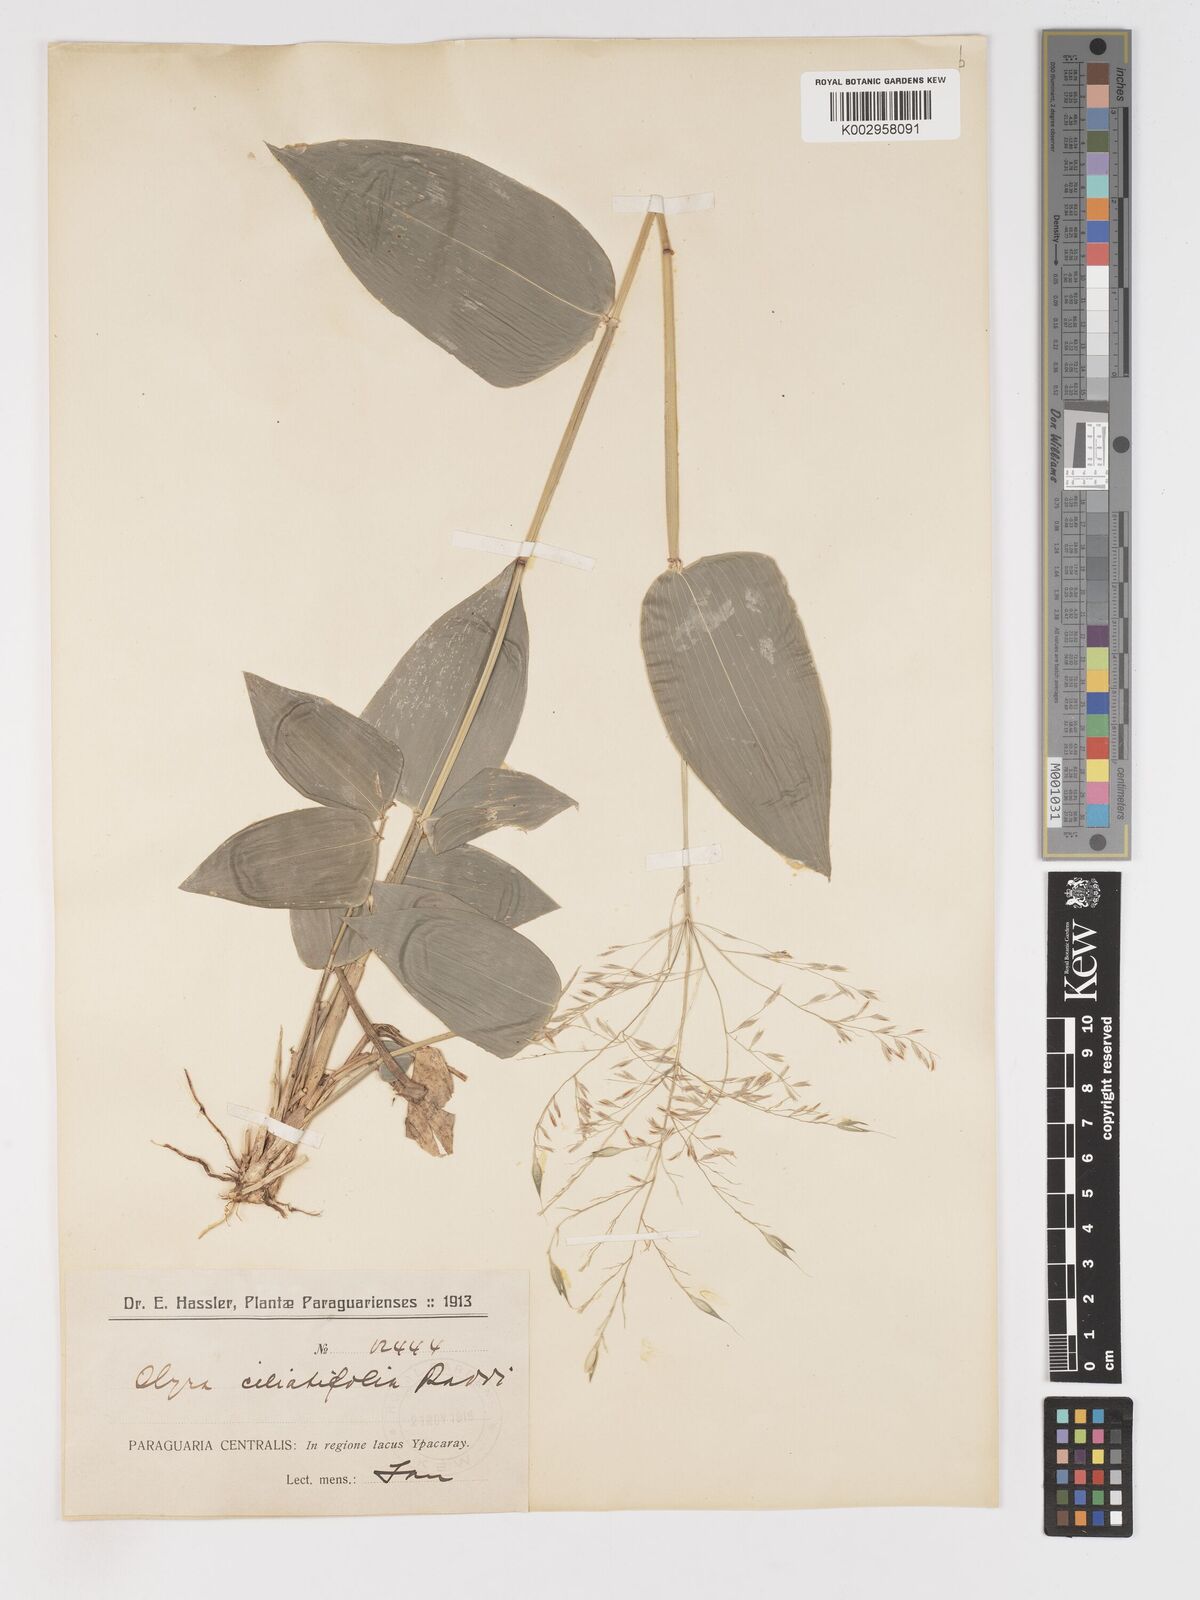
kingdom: Plantae
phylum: Tracheophyta
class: Liliopsida
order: Poales
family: Poaceae
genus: Olyra
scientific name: Olyra ciliatifolia
